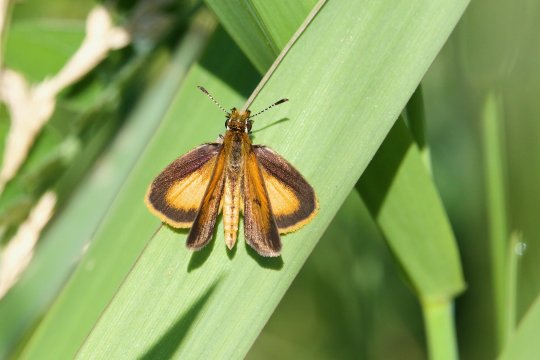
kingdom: Animalia
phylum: Arthropoda
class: Insecta
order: Lepidoptera
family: Hesperiidae
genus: Ancyloxypha
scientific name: Ancyloxypha numitor
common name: Least Skipper
